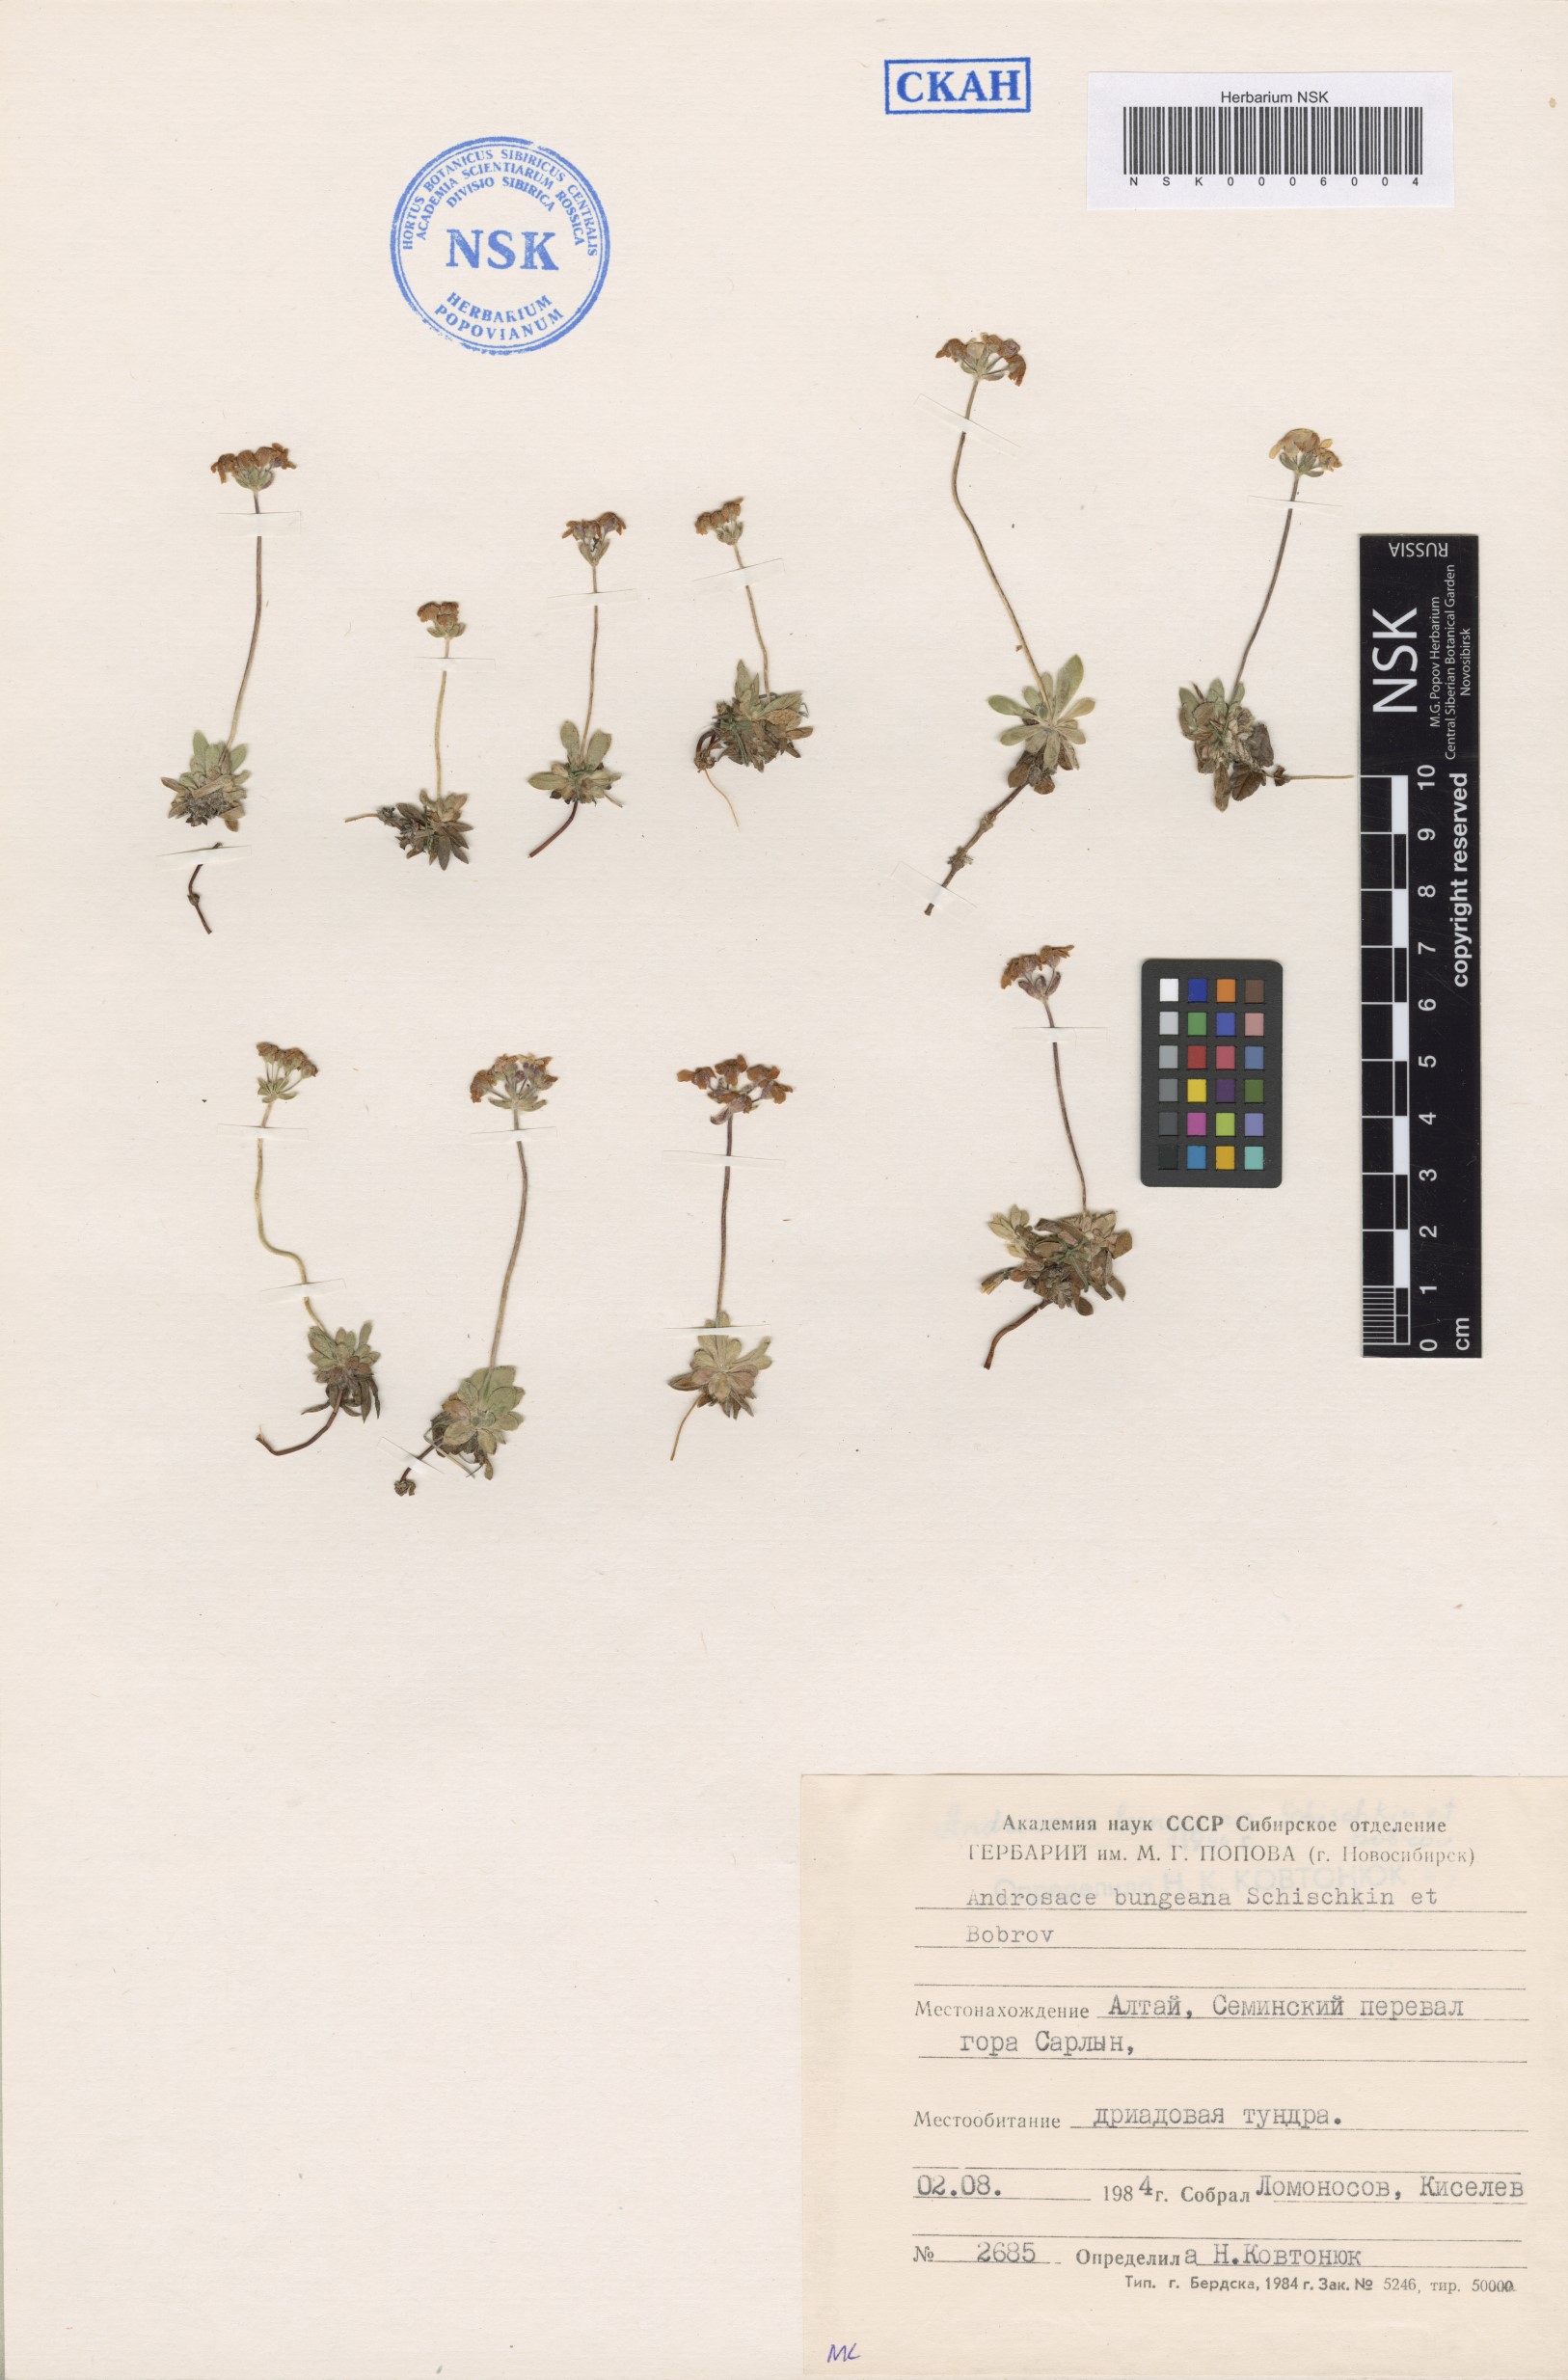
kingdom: Plantae
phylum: Tracheophyta
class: Magnoliopsida
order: Ericales
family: Primulaceae
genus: Androsace
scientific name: Androsace bungeana
